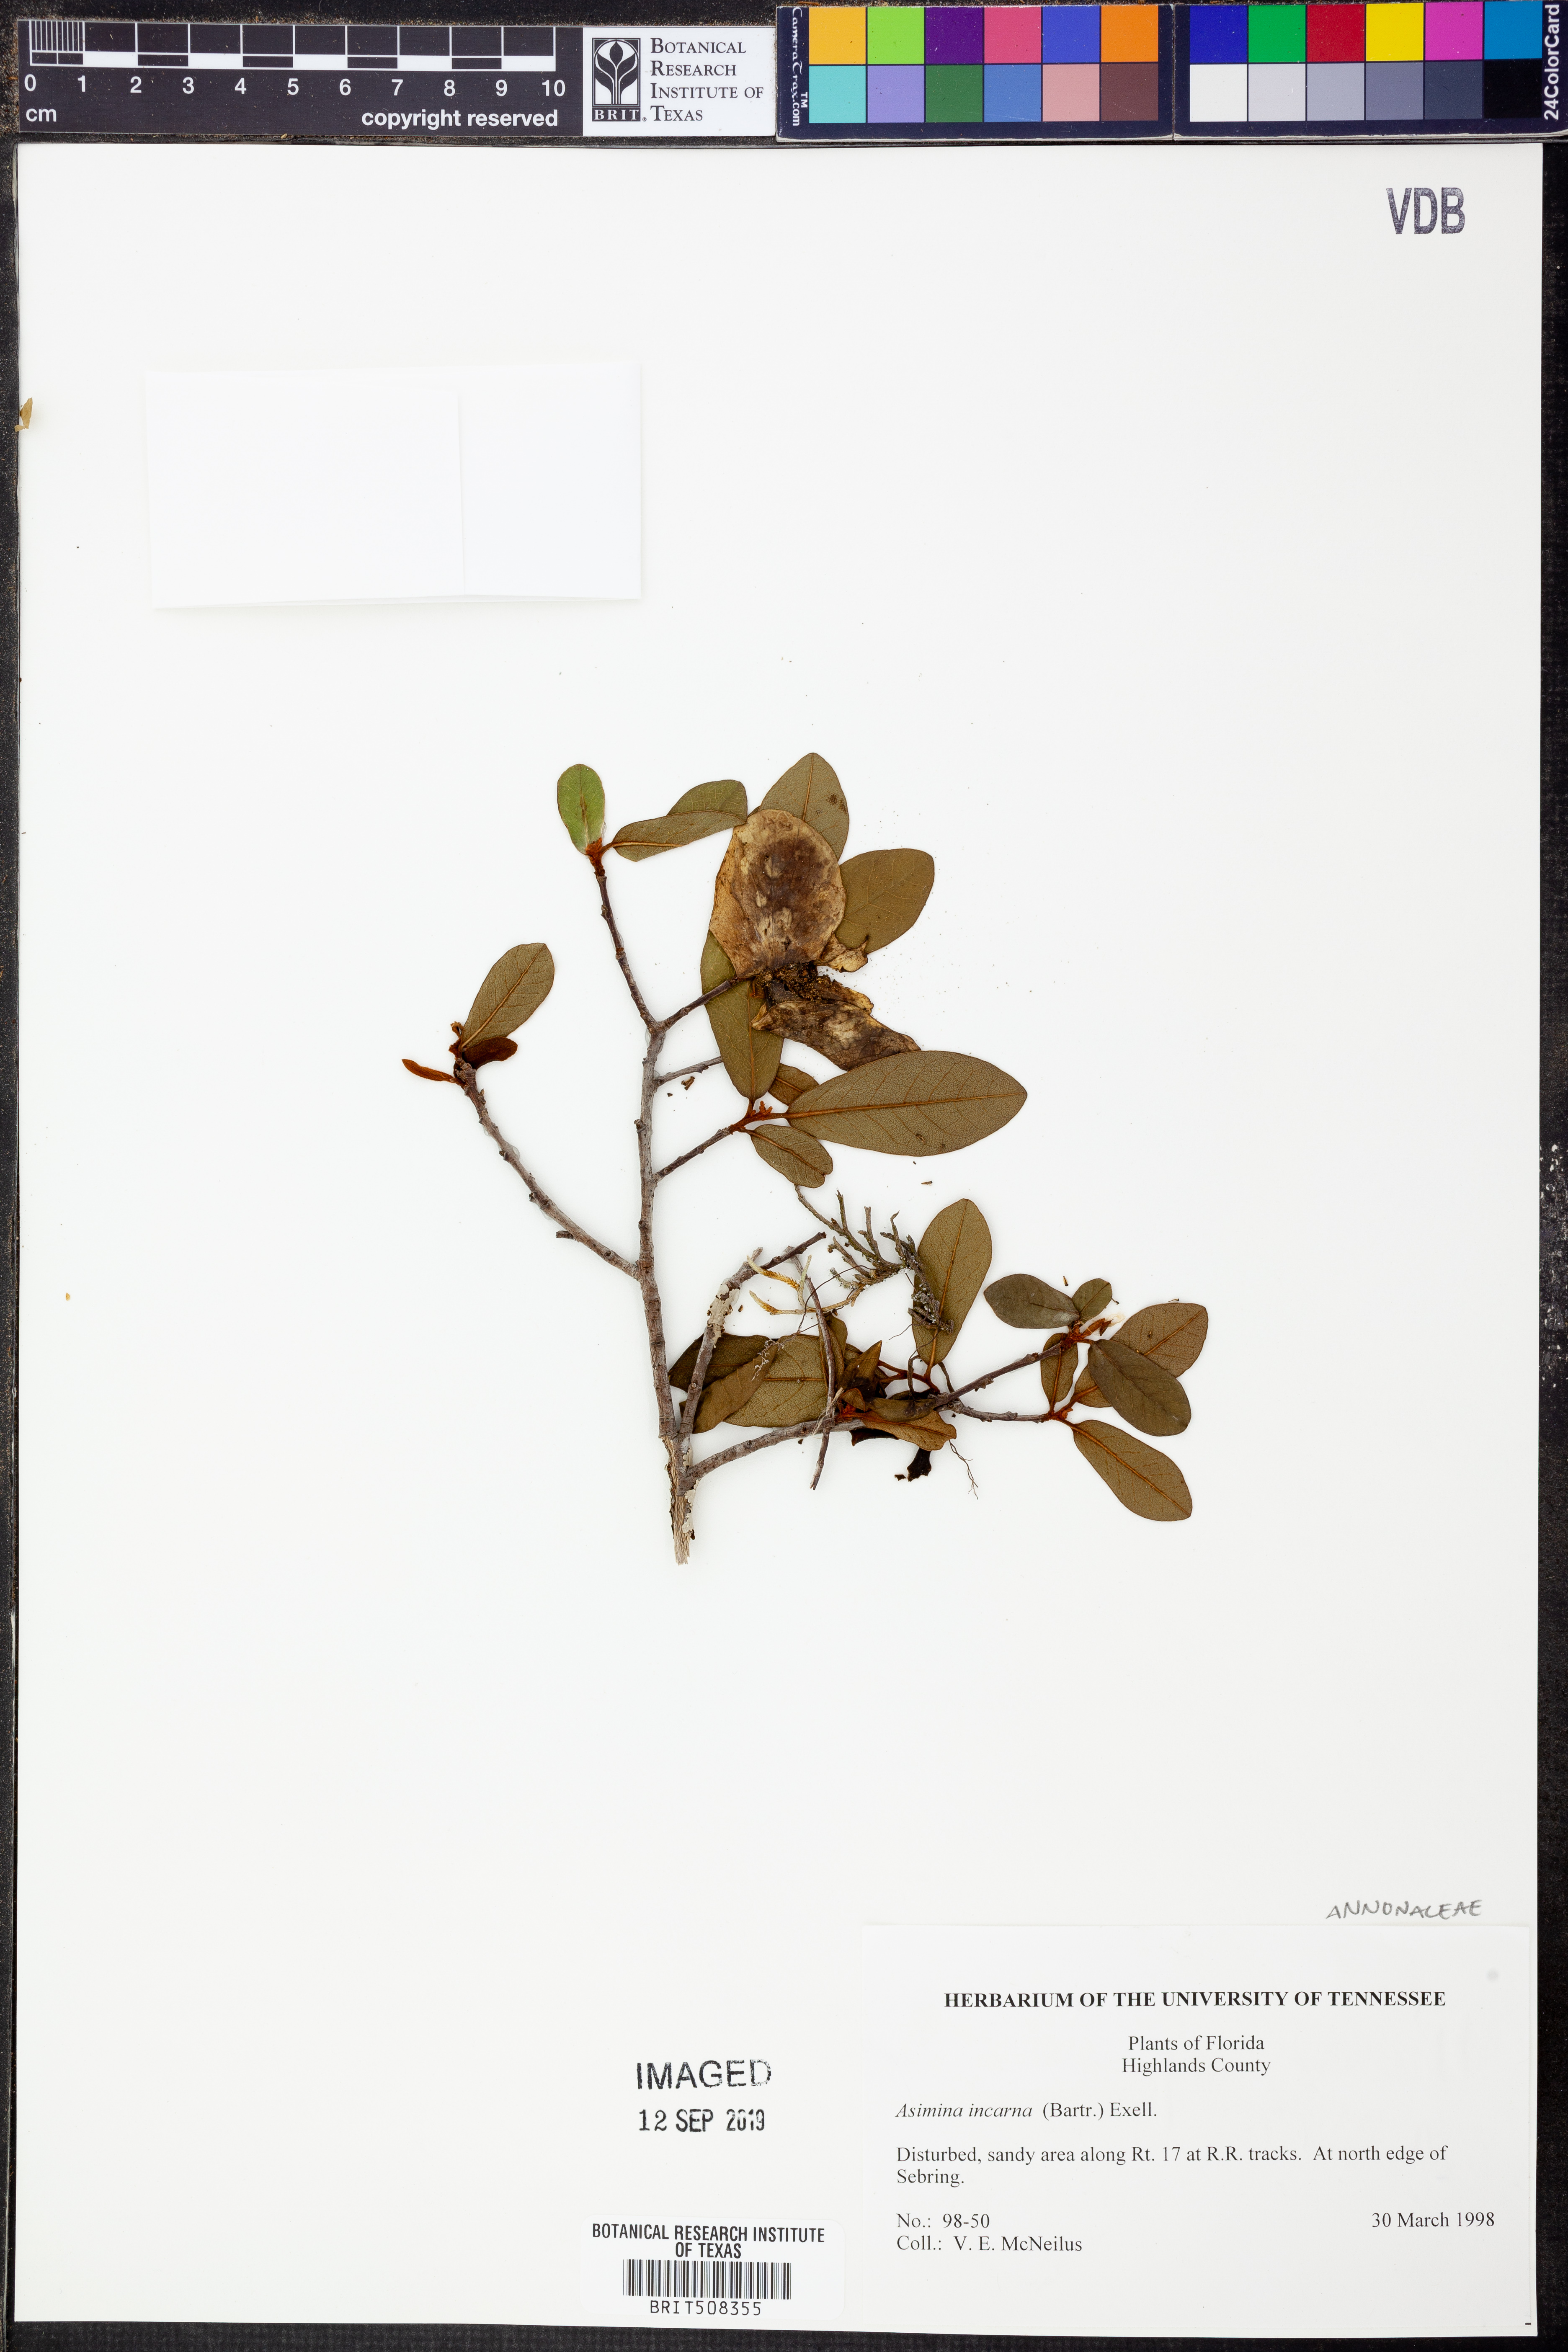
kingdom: Plantae
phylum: Tracheophyta
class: Magnoliopsida
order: Magnoliales
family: Annonaceae
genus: Asimina
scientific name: Asimina speciosa
